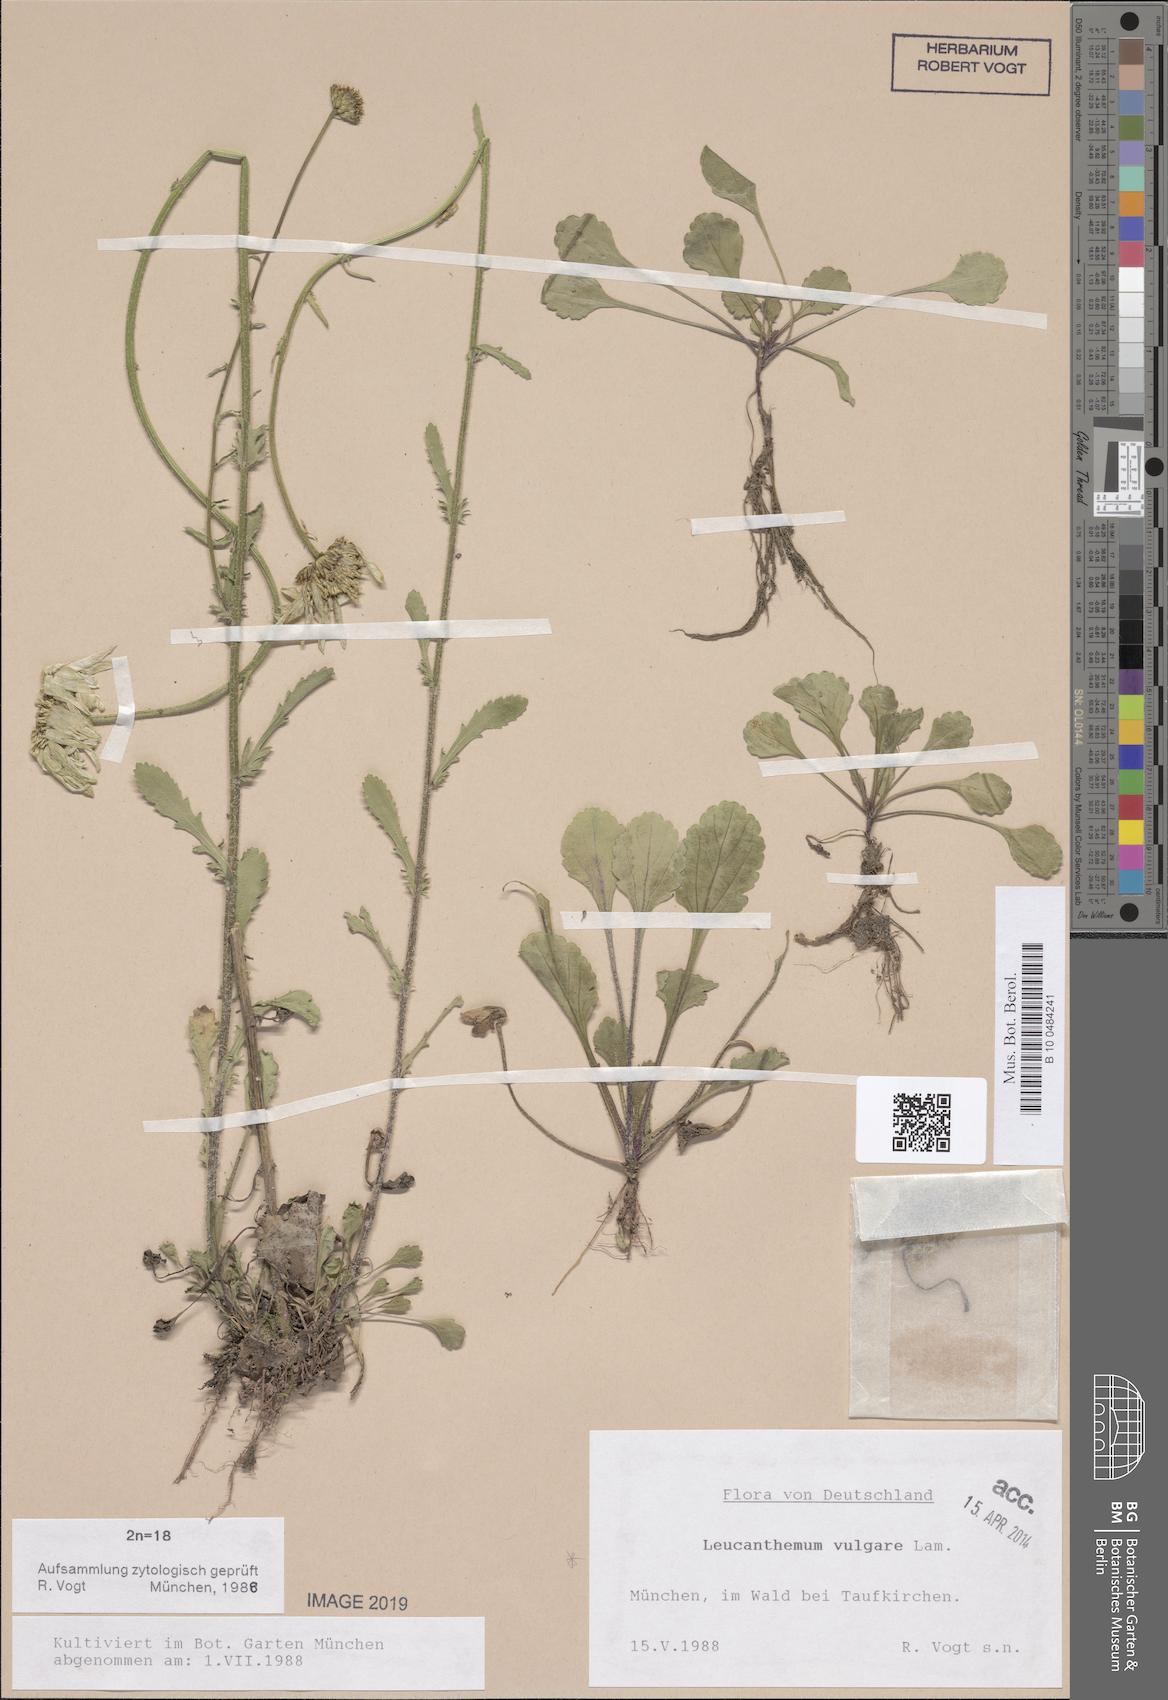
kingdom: Plantae
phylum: Tracheophyta
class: Magnoliopsida
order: Asterales
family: Asteraceae
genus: Leucanthemum
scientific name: Leucanthemum vulgare
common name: Oxeye daisy
